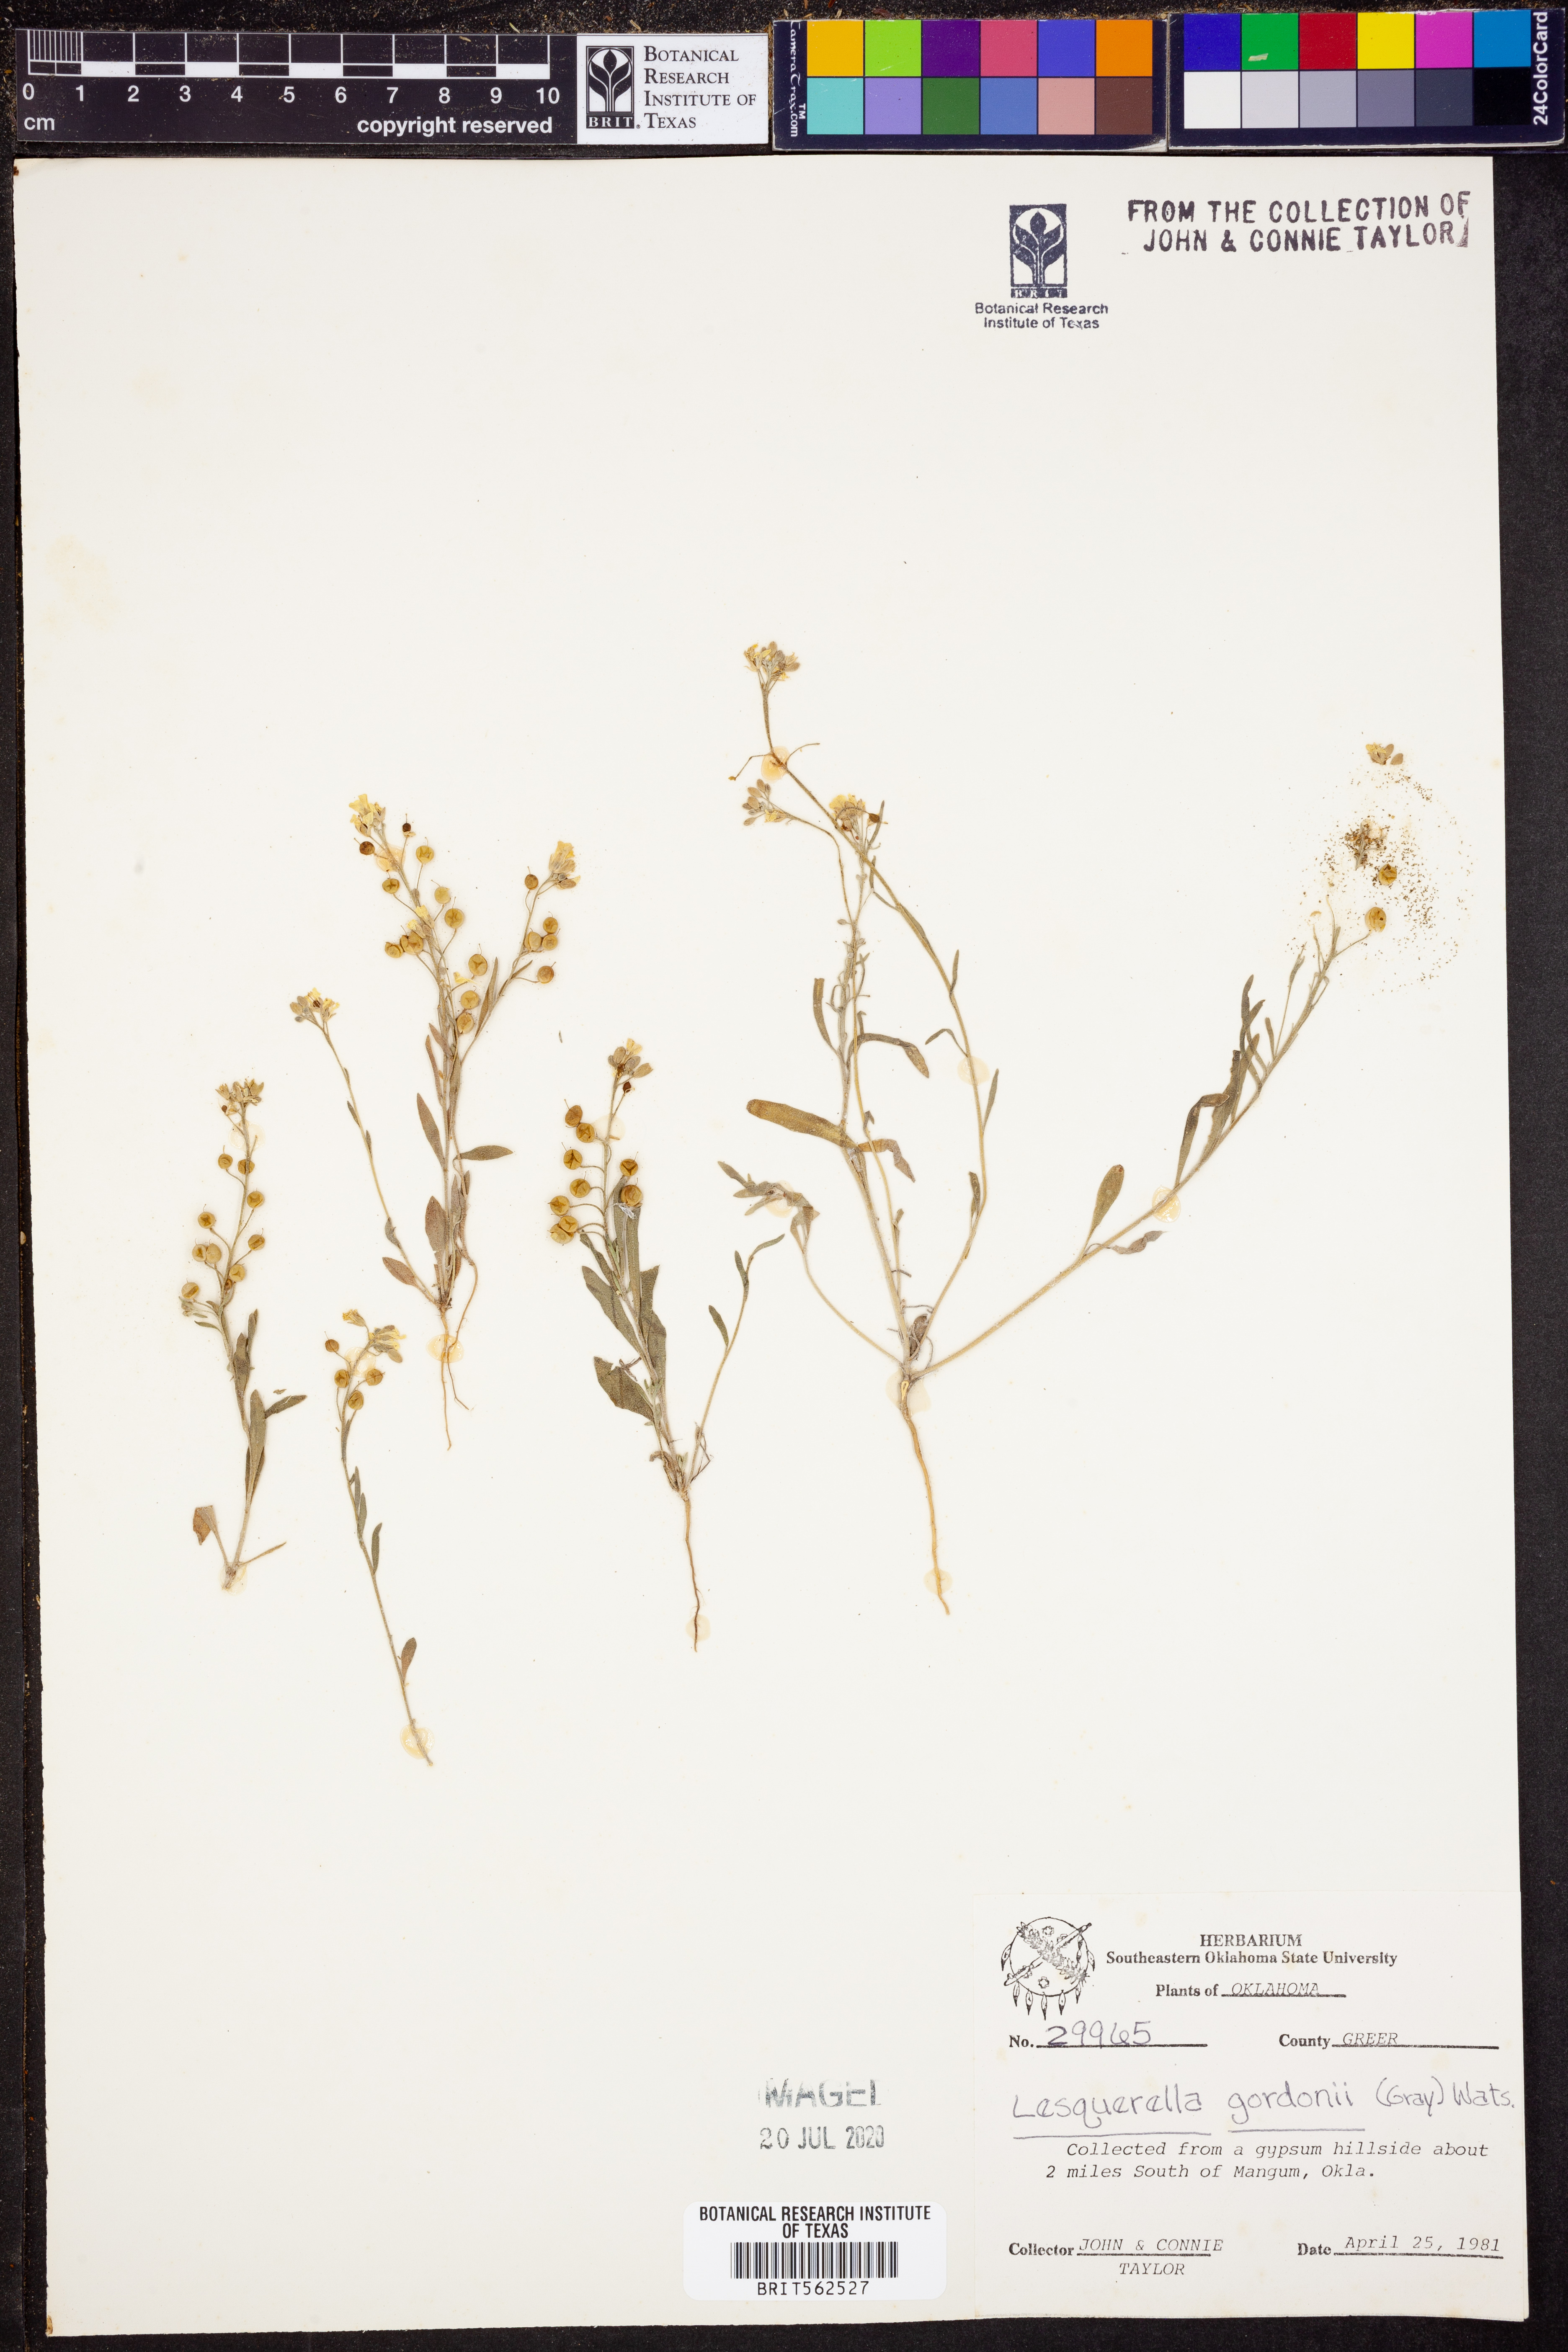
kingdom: Plantae
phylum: Tracheophyta
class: Magnoliopsida
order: Brassicales
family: Brassicaceae
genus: Physaria
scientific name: Physaria gordonii
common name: Gordon's bladderpod
